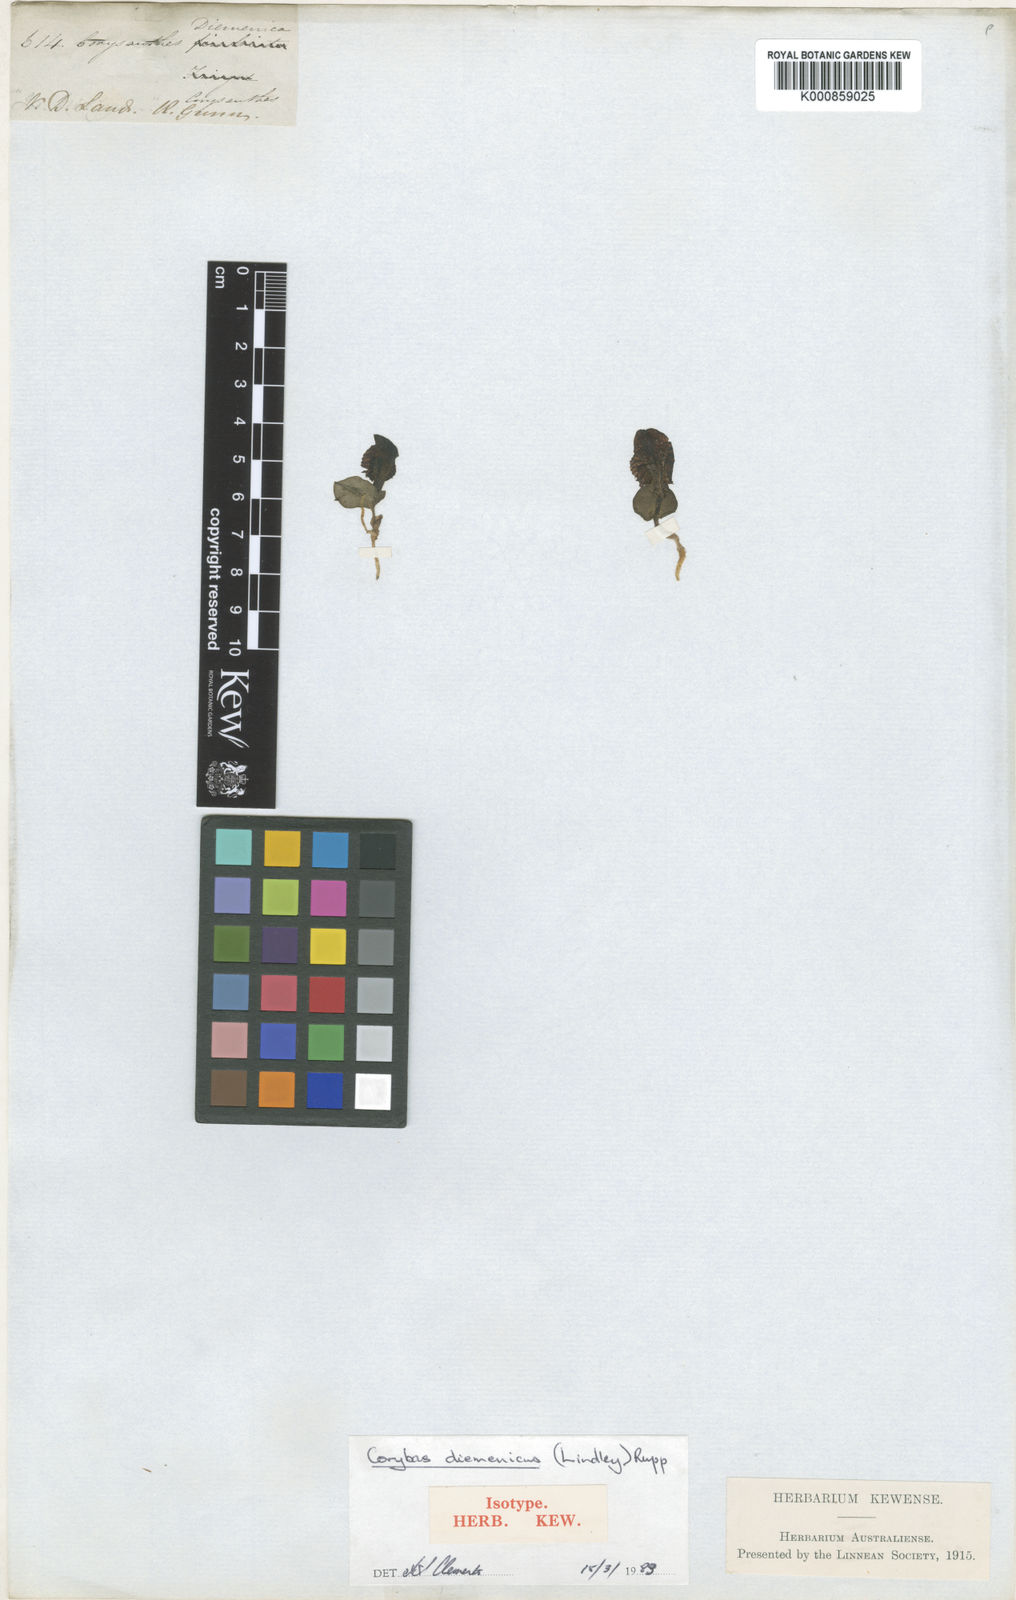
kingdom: Plantae
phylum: Tracheophyta
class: Liliopsida
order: Asparagales
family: Orchidaceae
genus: Corybas
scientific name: Corybas diemenicus
